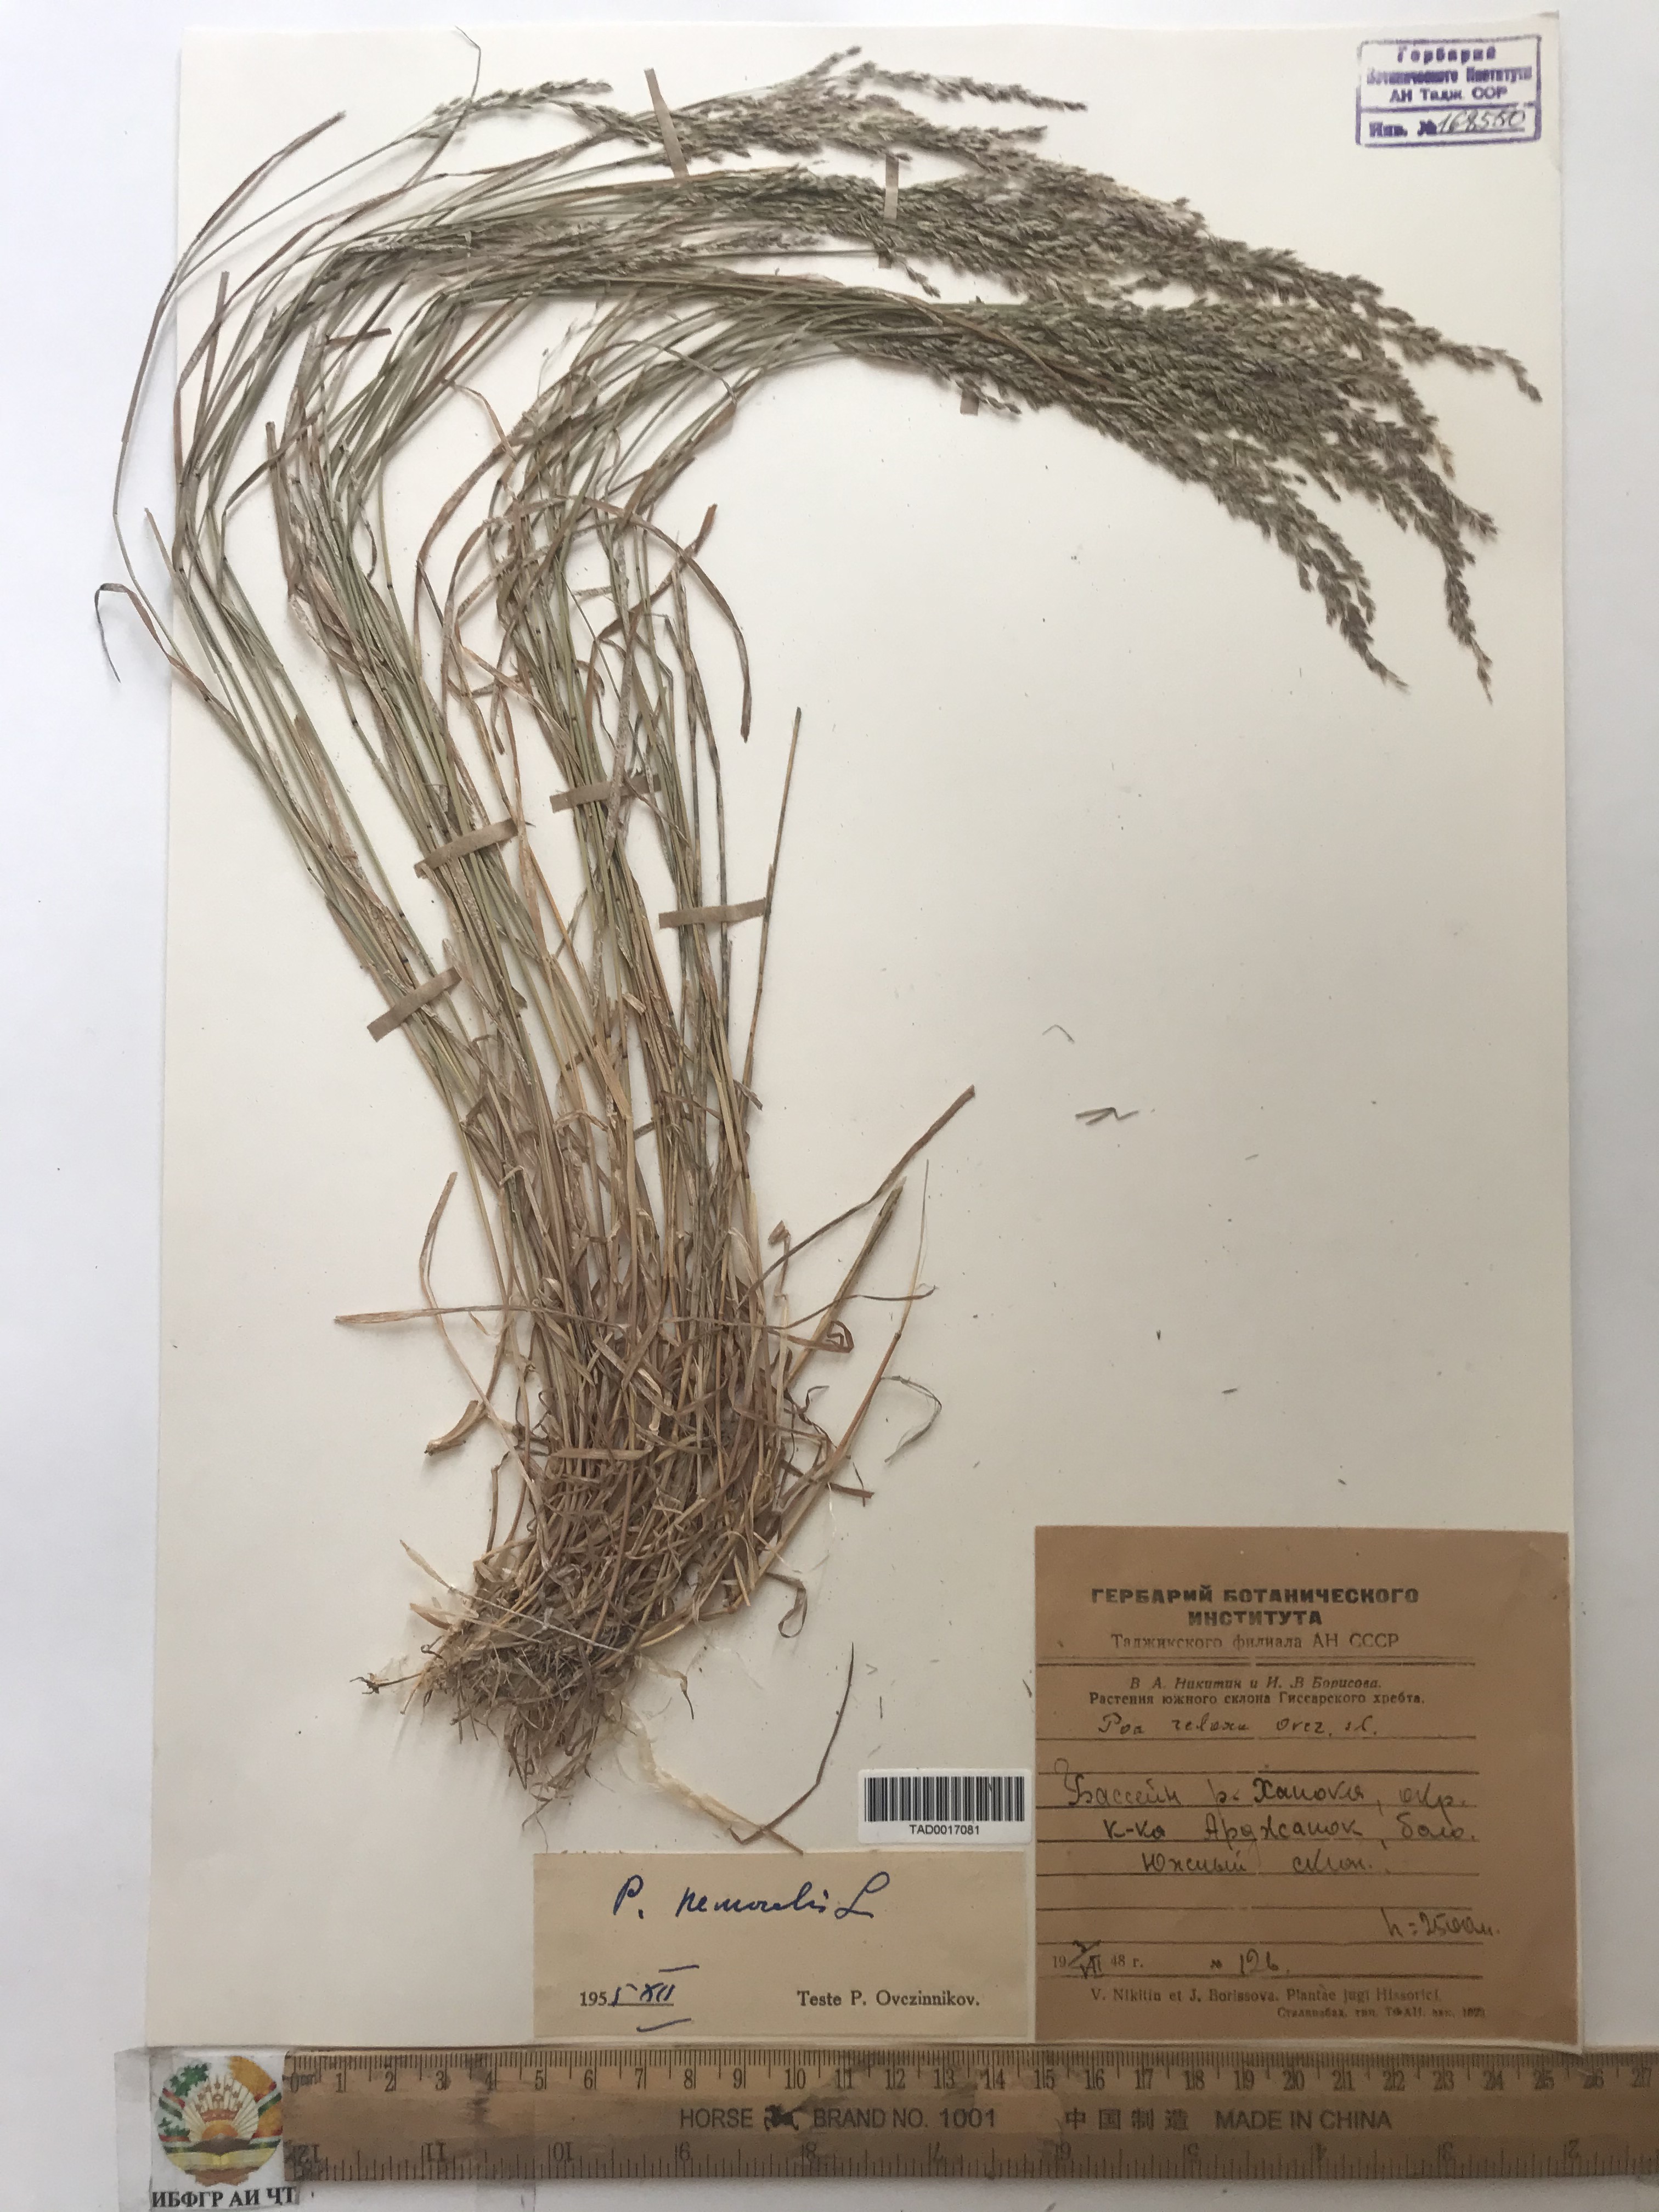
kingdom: Plantae
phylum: Tracheophyta
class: Liliopsida
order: Poales
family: Poaceae
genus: Poa
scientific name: Poa nemoralis
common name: Wood bluegrass
